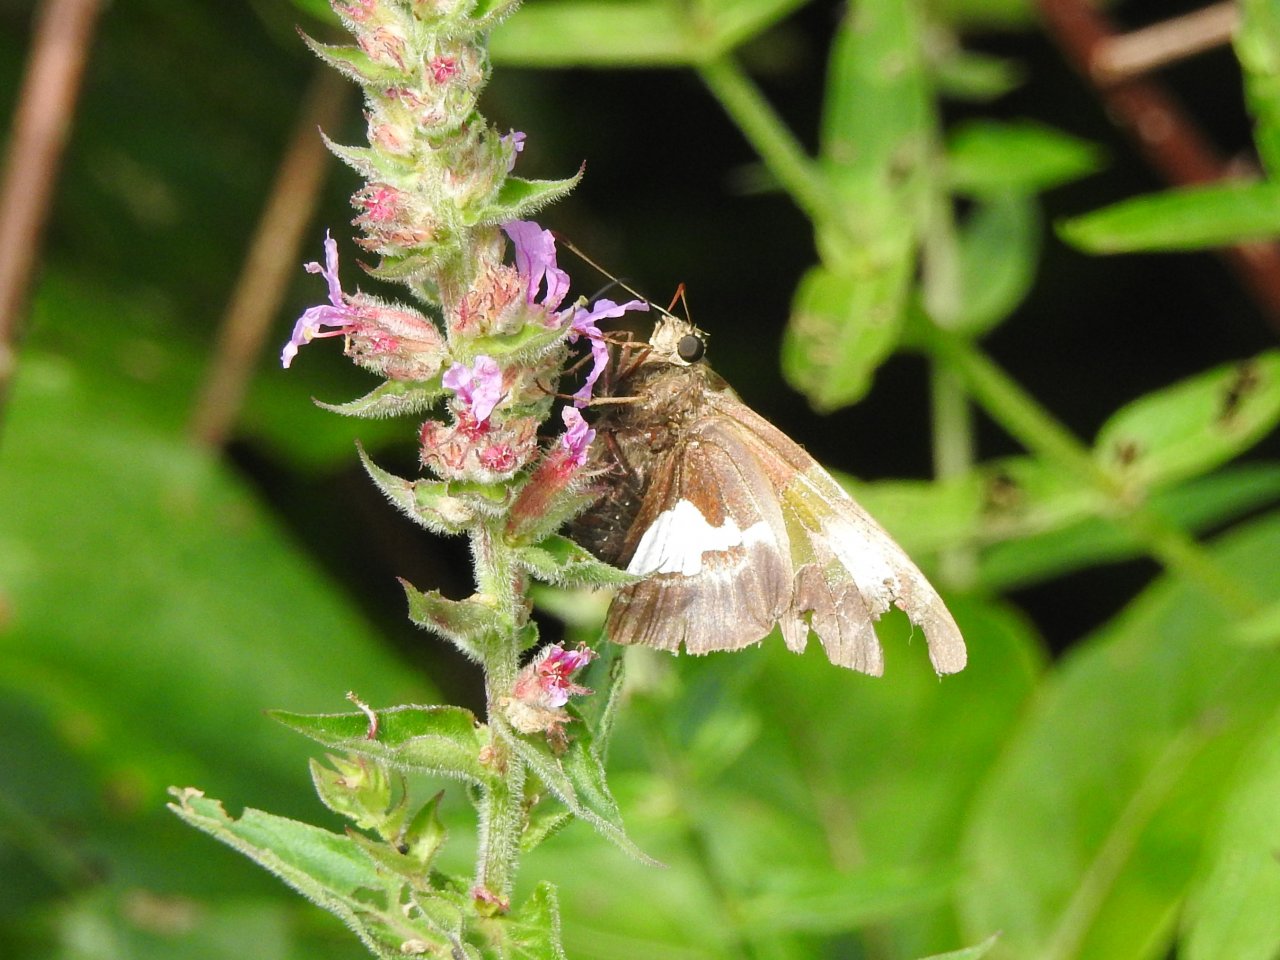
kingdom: Animalia
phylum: Arthropoda
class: Insecta
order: Lepidoptera
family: Hesperiidae
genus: Epargyreus
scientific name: Epargyreus clarus
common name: Silver-spotted Skipper
